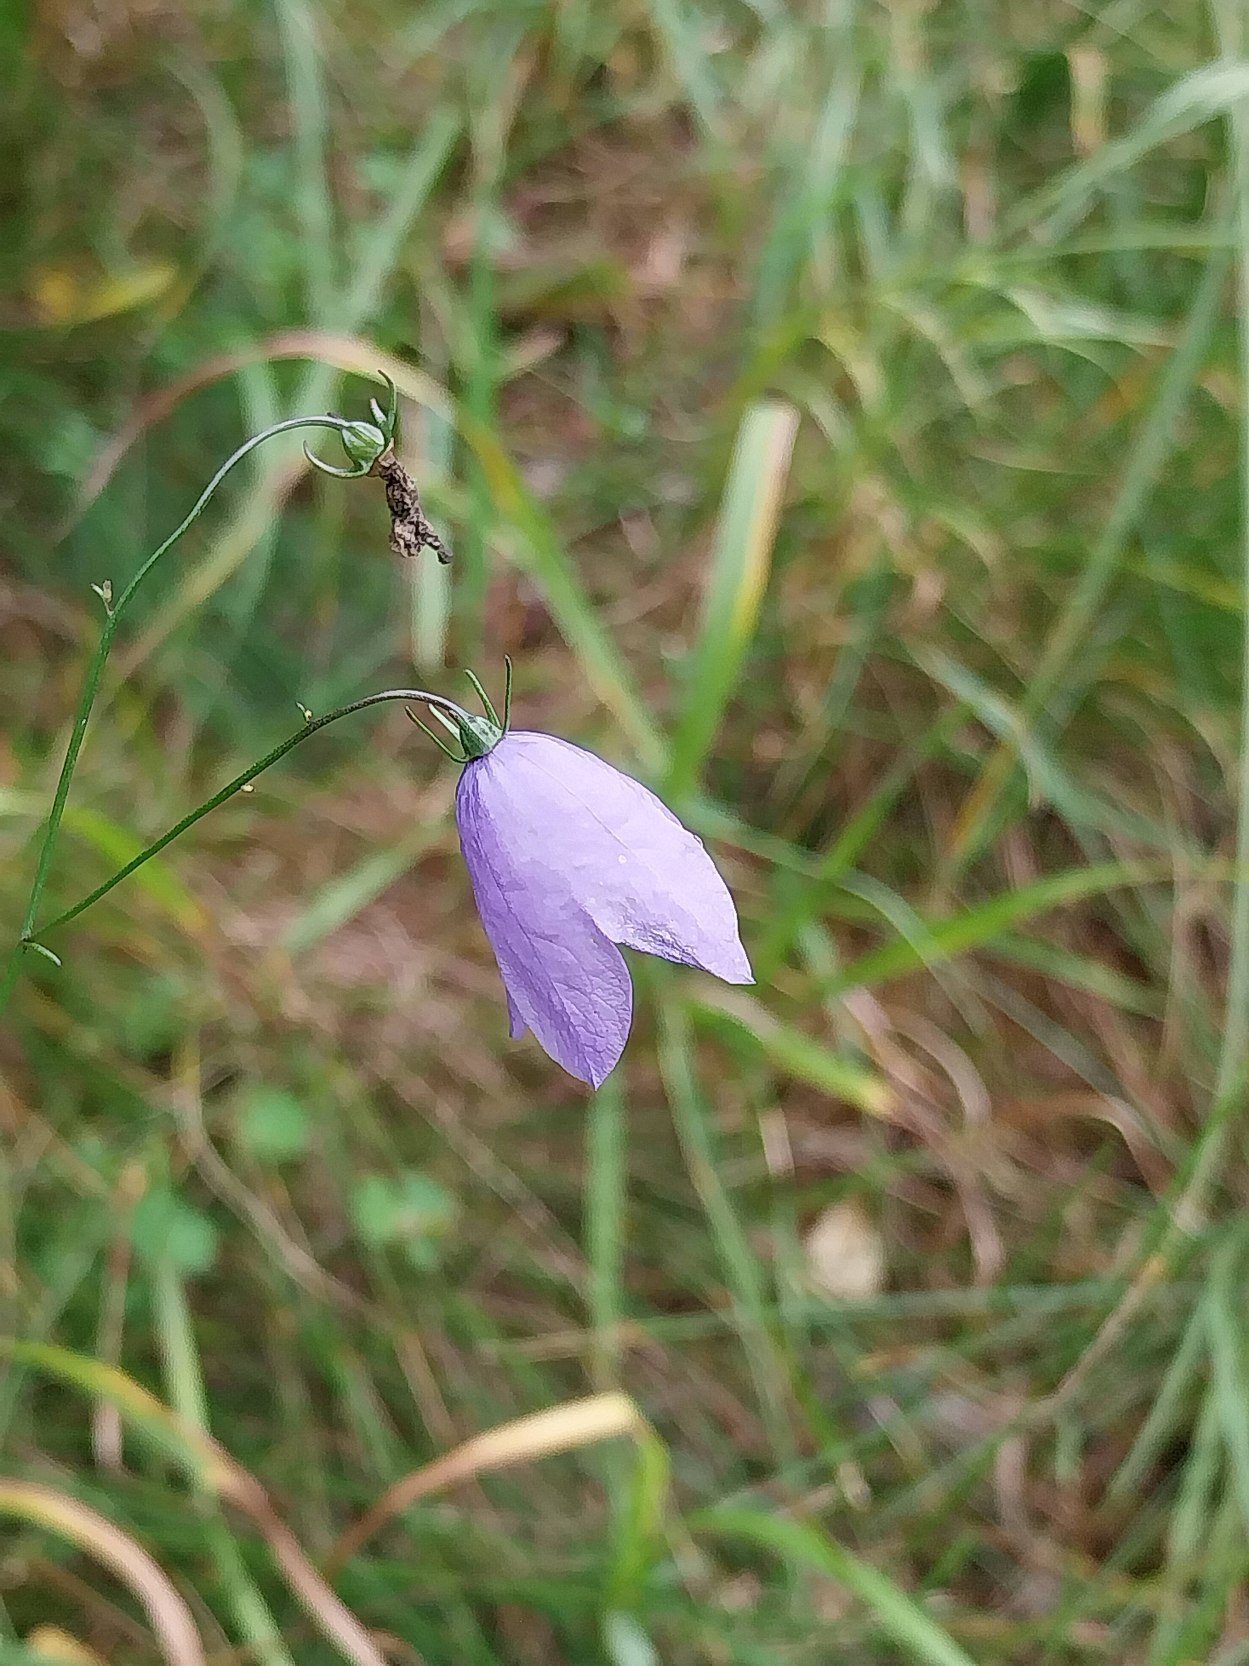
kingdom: Plantae
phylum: Tracheophyta
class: Magnoliopsida
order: Asterales
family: Campanulaceae
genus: Campanula
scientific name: Campanula rotundifolia
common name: Liden klokke
